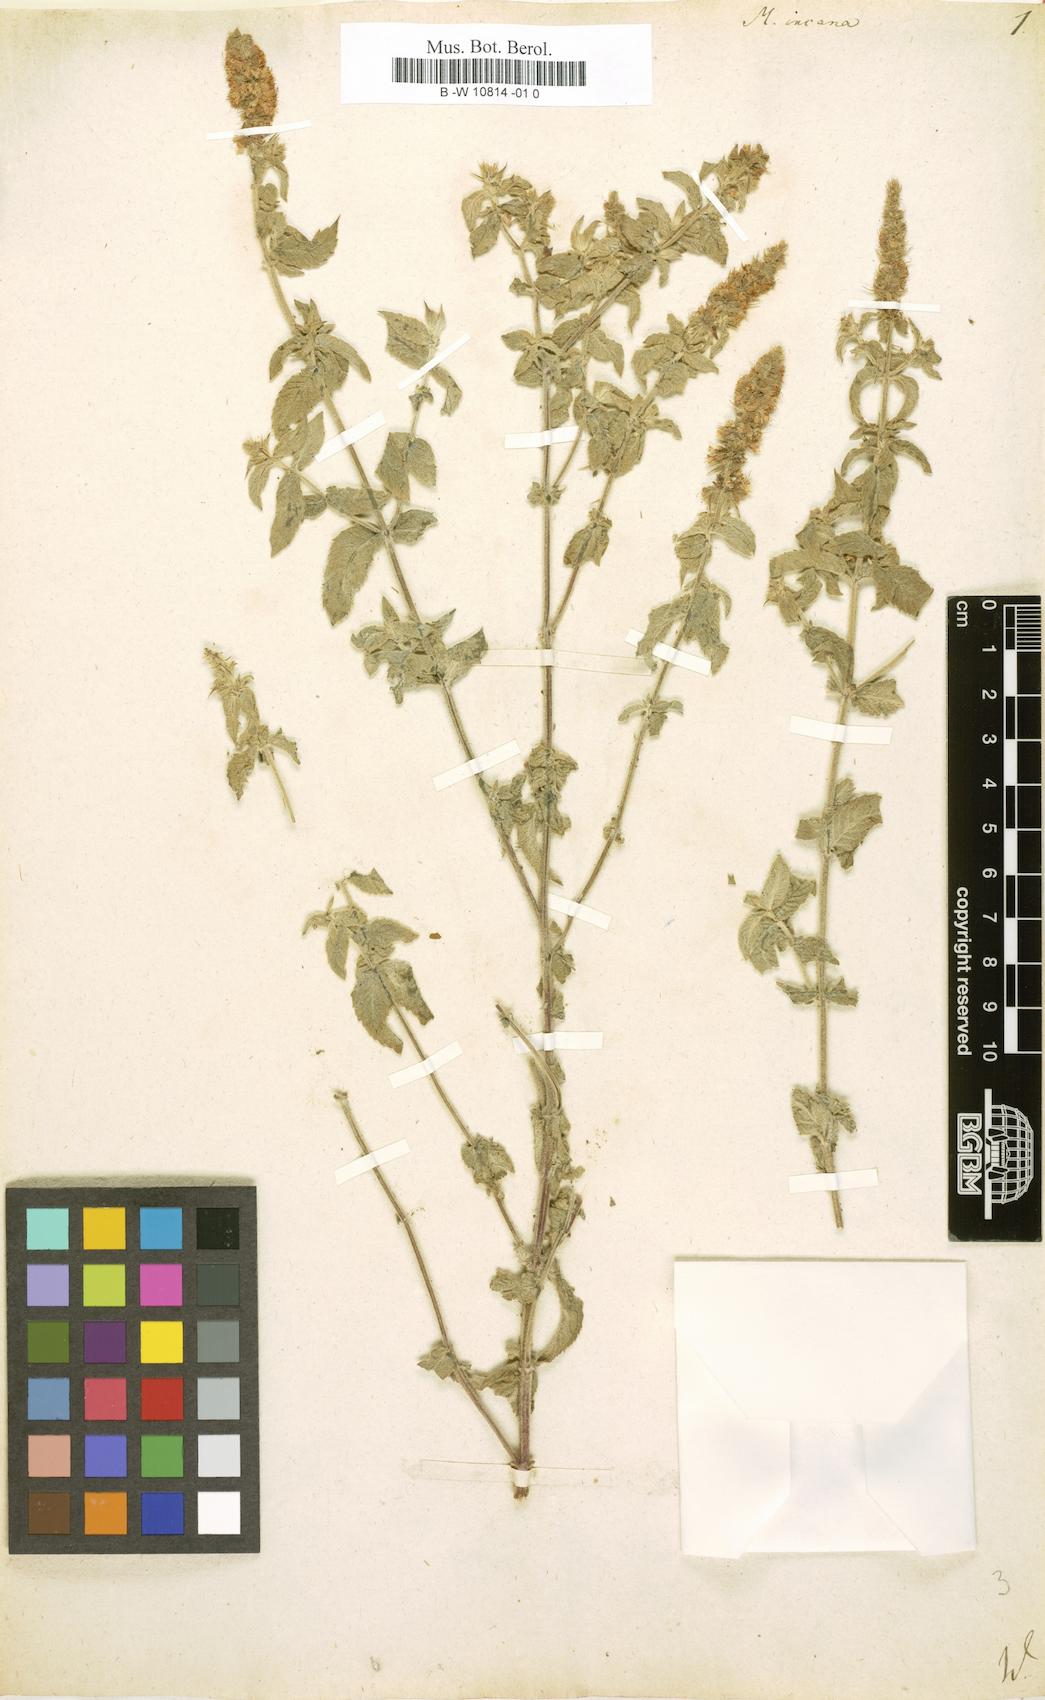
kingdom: Plantae
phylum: Tracheophyta
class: Magnoliopsida
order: Lamiales
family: Lamiaceae
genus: Mentha
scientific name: Mentha longifolia
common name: Horse mint
